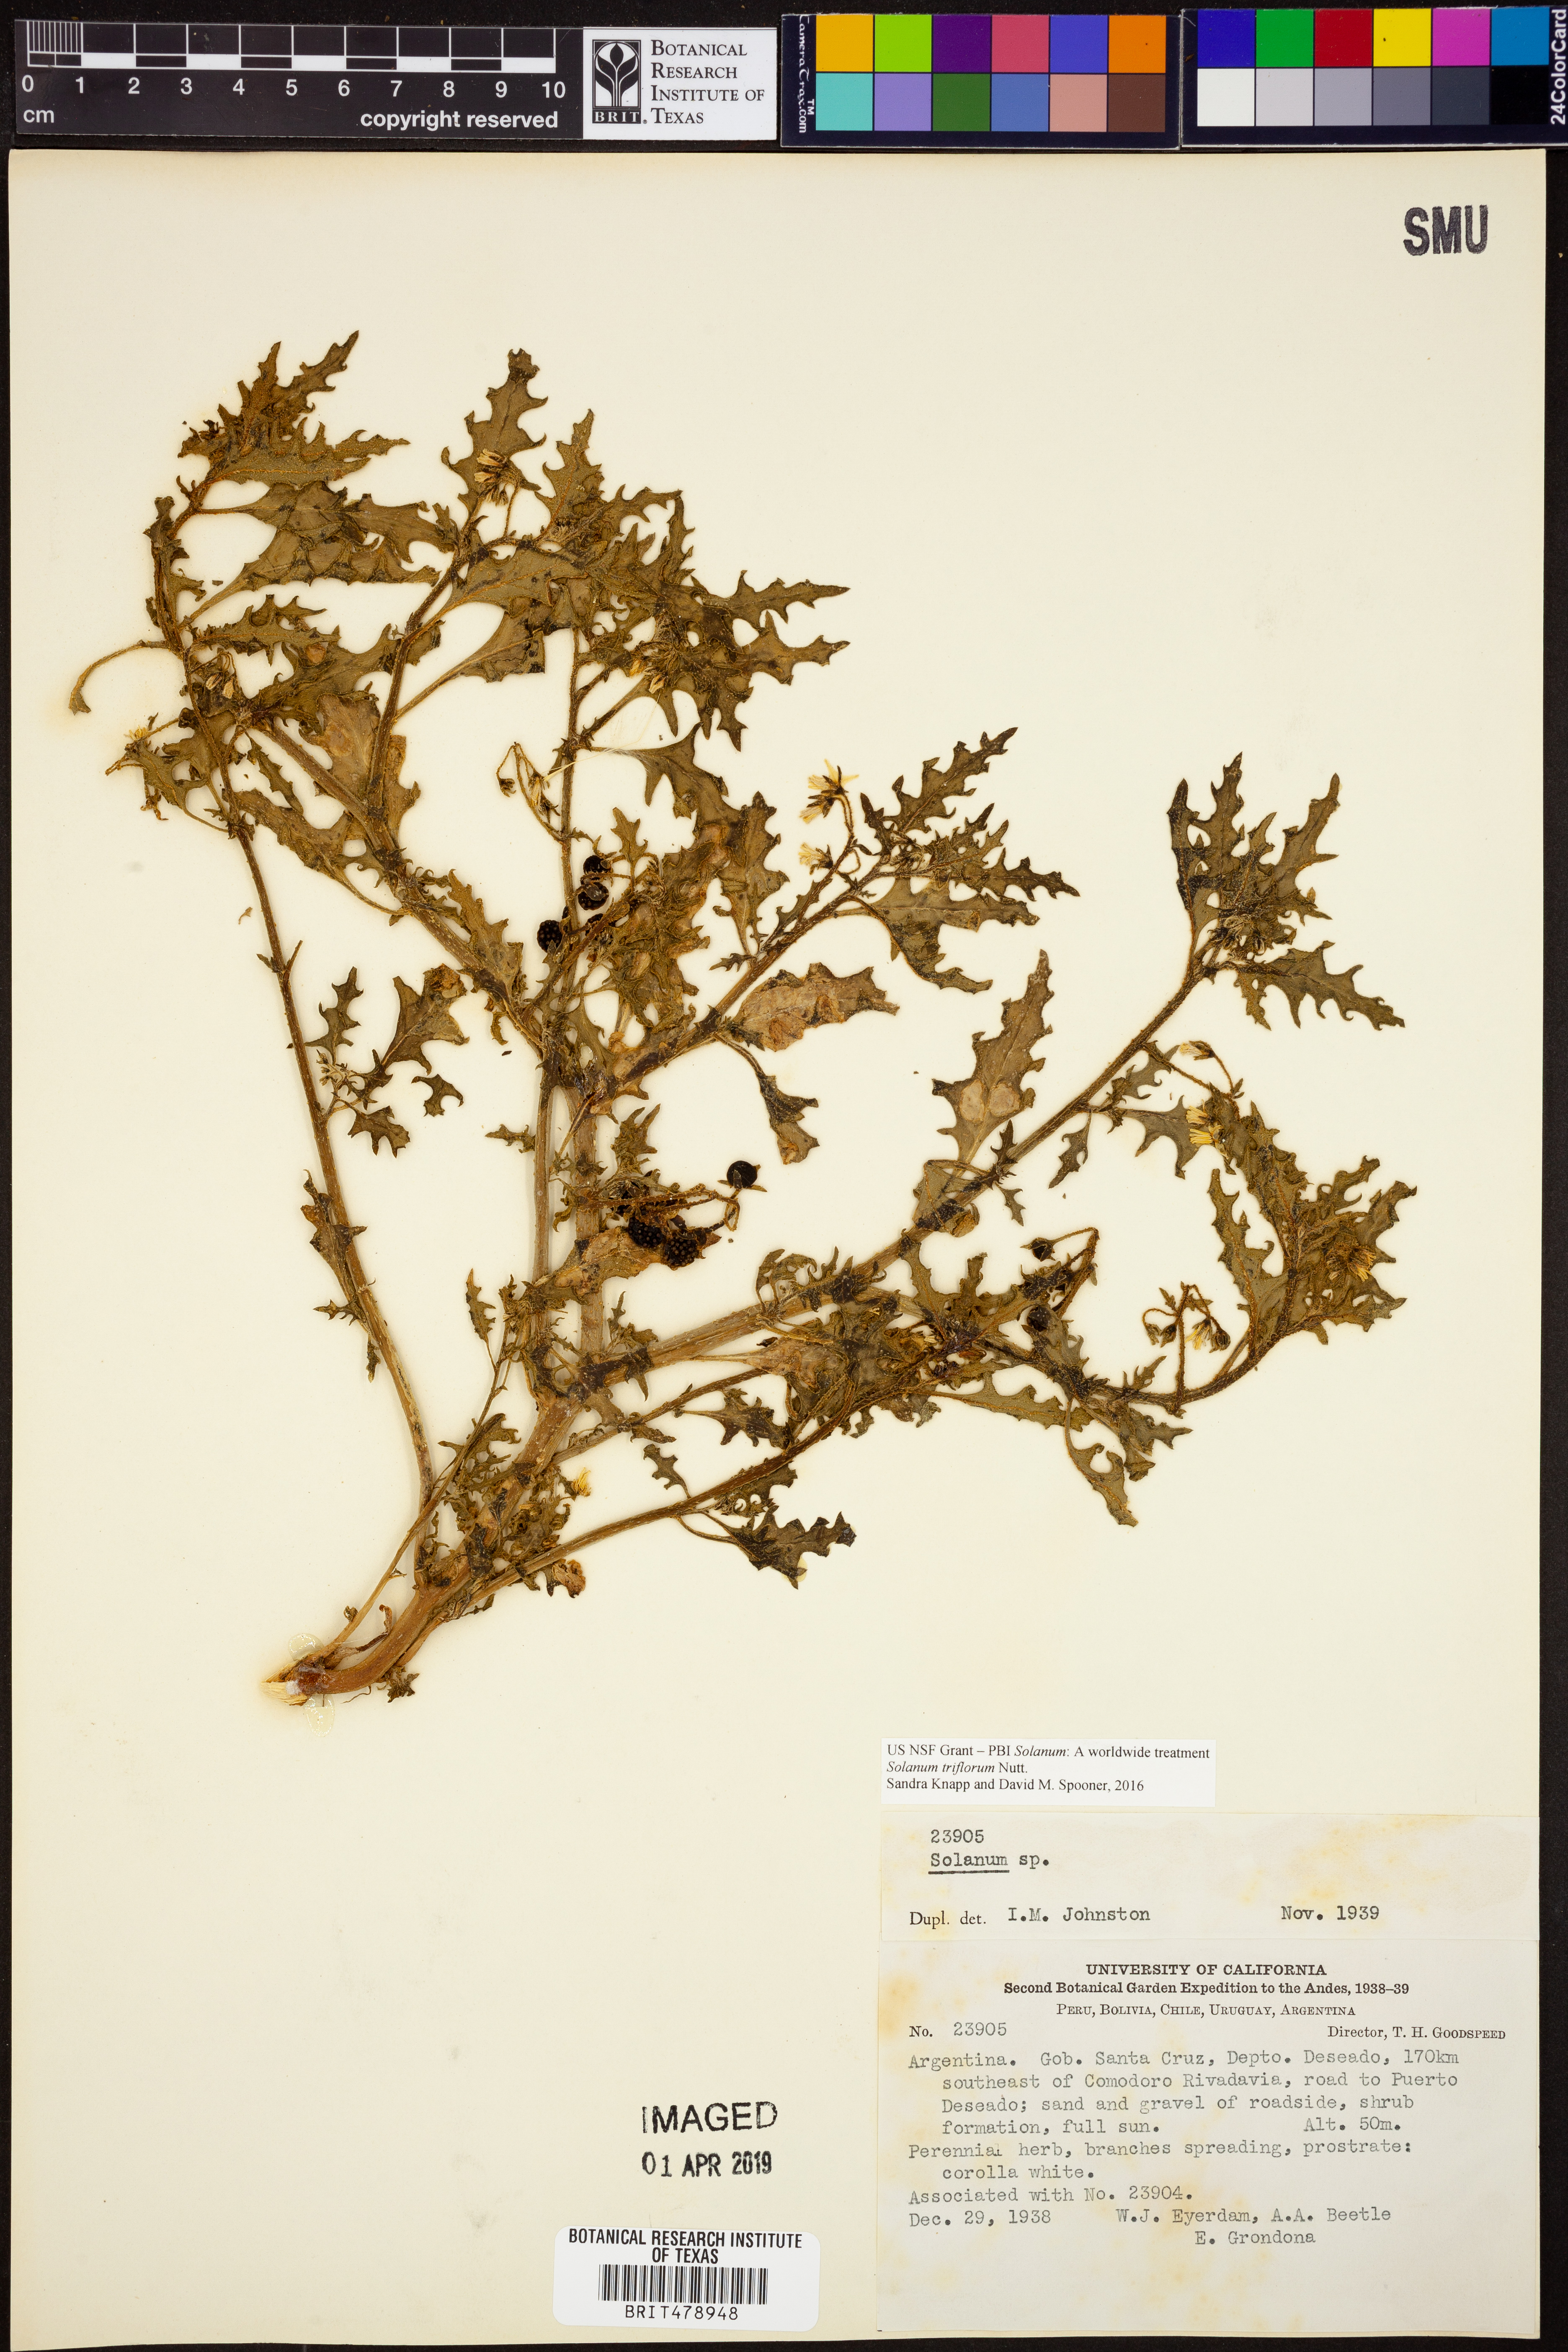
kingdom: Plantae
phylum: Tracheophyta
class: Magnoliopsida
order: Solanales
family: Solanaceae
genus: Solanum
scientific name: Solanum triflorum
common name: Small nightshade
